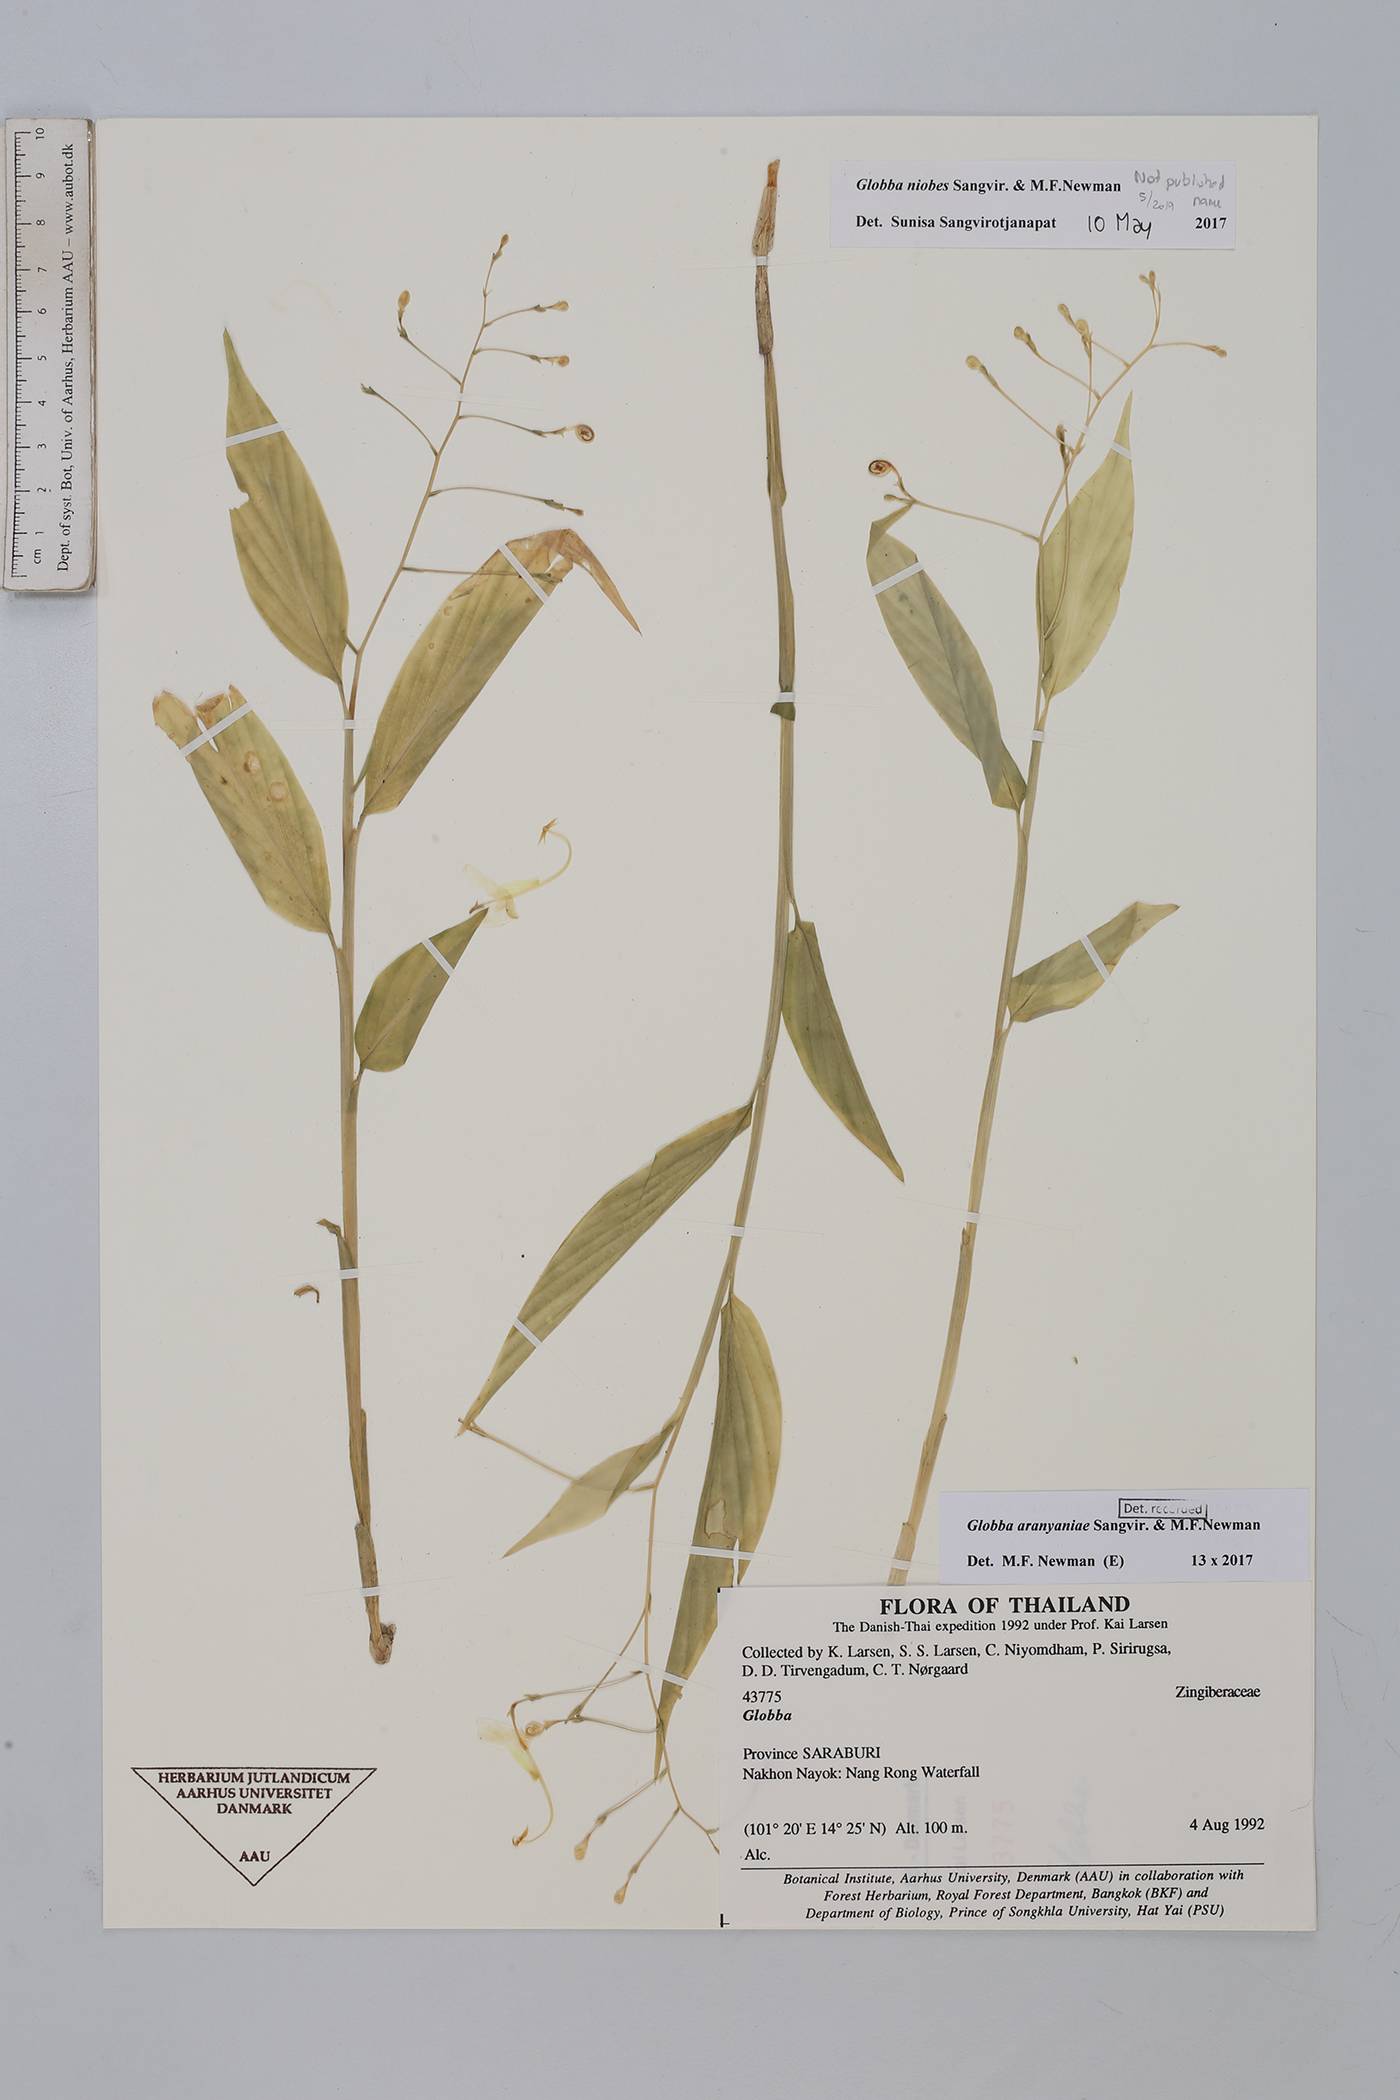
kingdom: Plantae
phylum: Tracheophyta
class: Liliopsida
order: Zingiberales
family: Zingiberaceae
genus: Globba
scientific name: Globba aranyaniae
